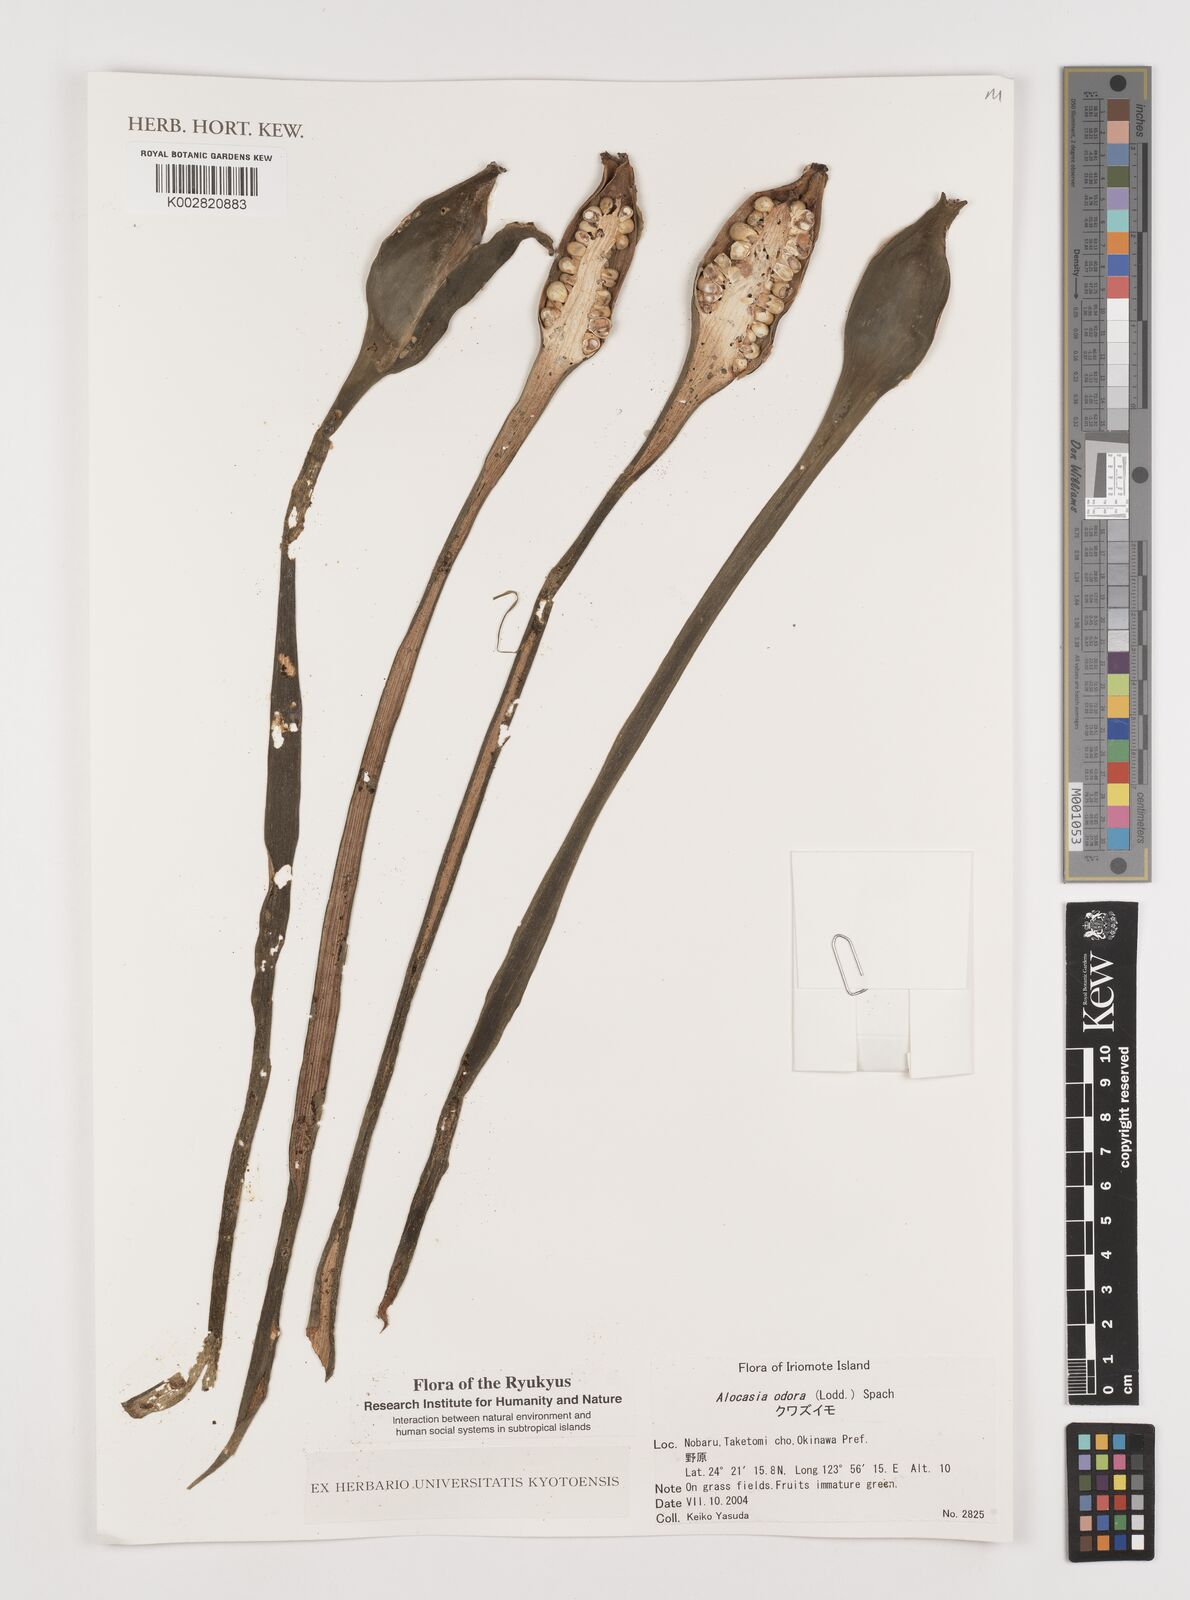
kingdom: Plantae
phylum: Tracheophyta
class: Liliopsida
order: Alismatales
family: Araceae
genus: Alocasia
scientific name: Alocasia
